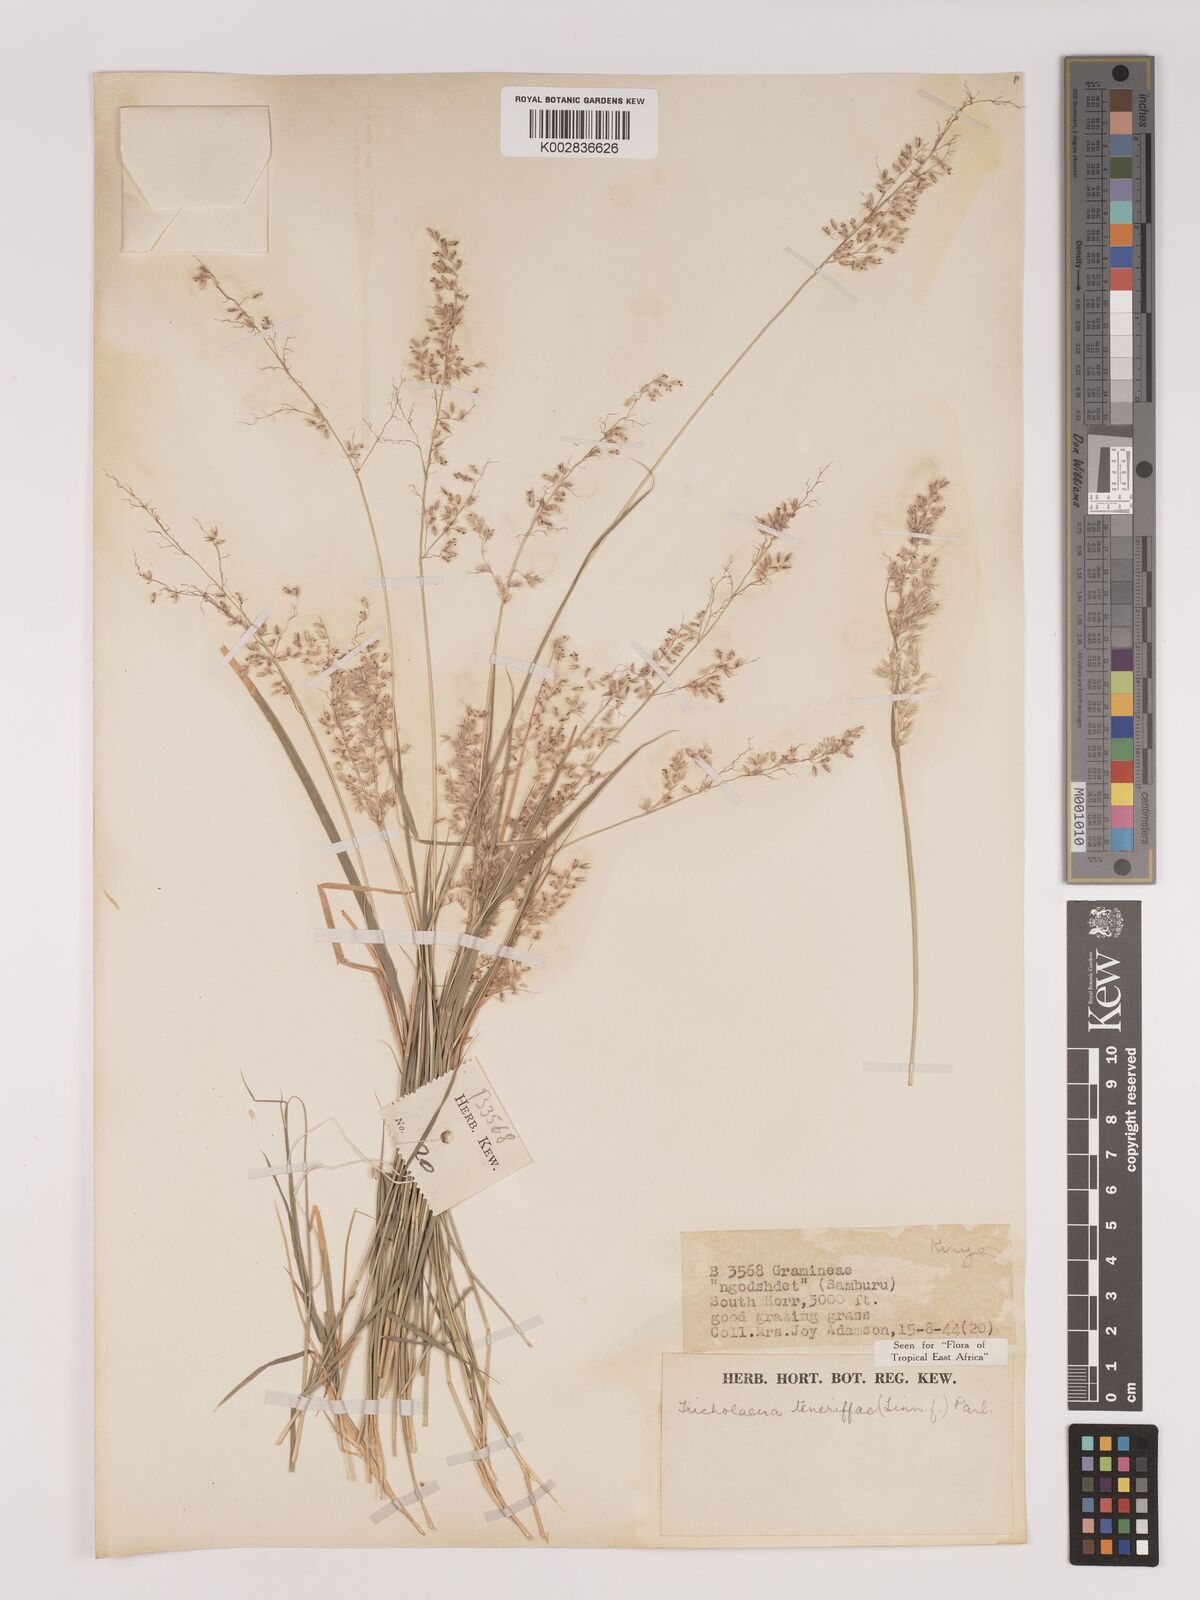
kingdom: Plantae
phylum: Tracheophyta
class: Liliopsida
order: Poales
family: Poaceae
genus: Tricholaena
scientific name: Tricholaena teneriffae
